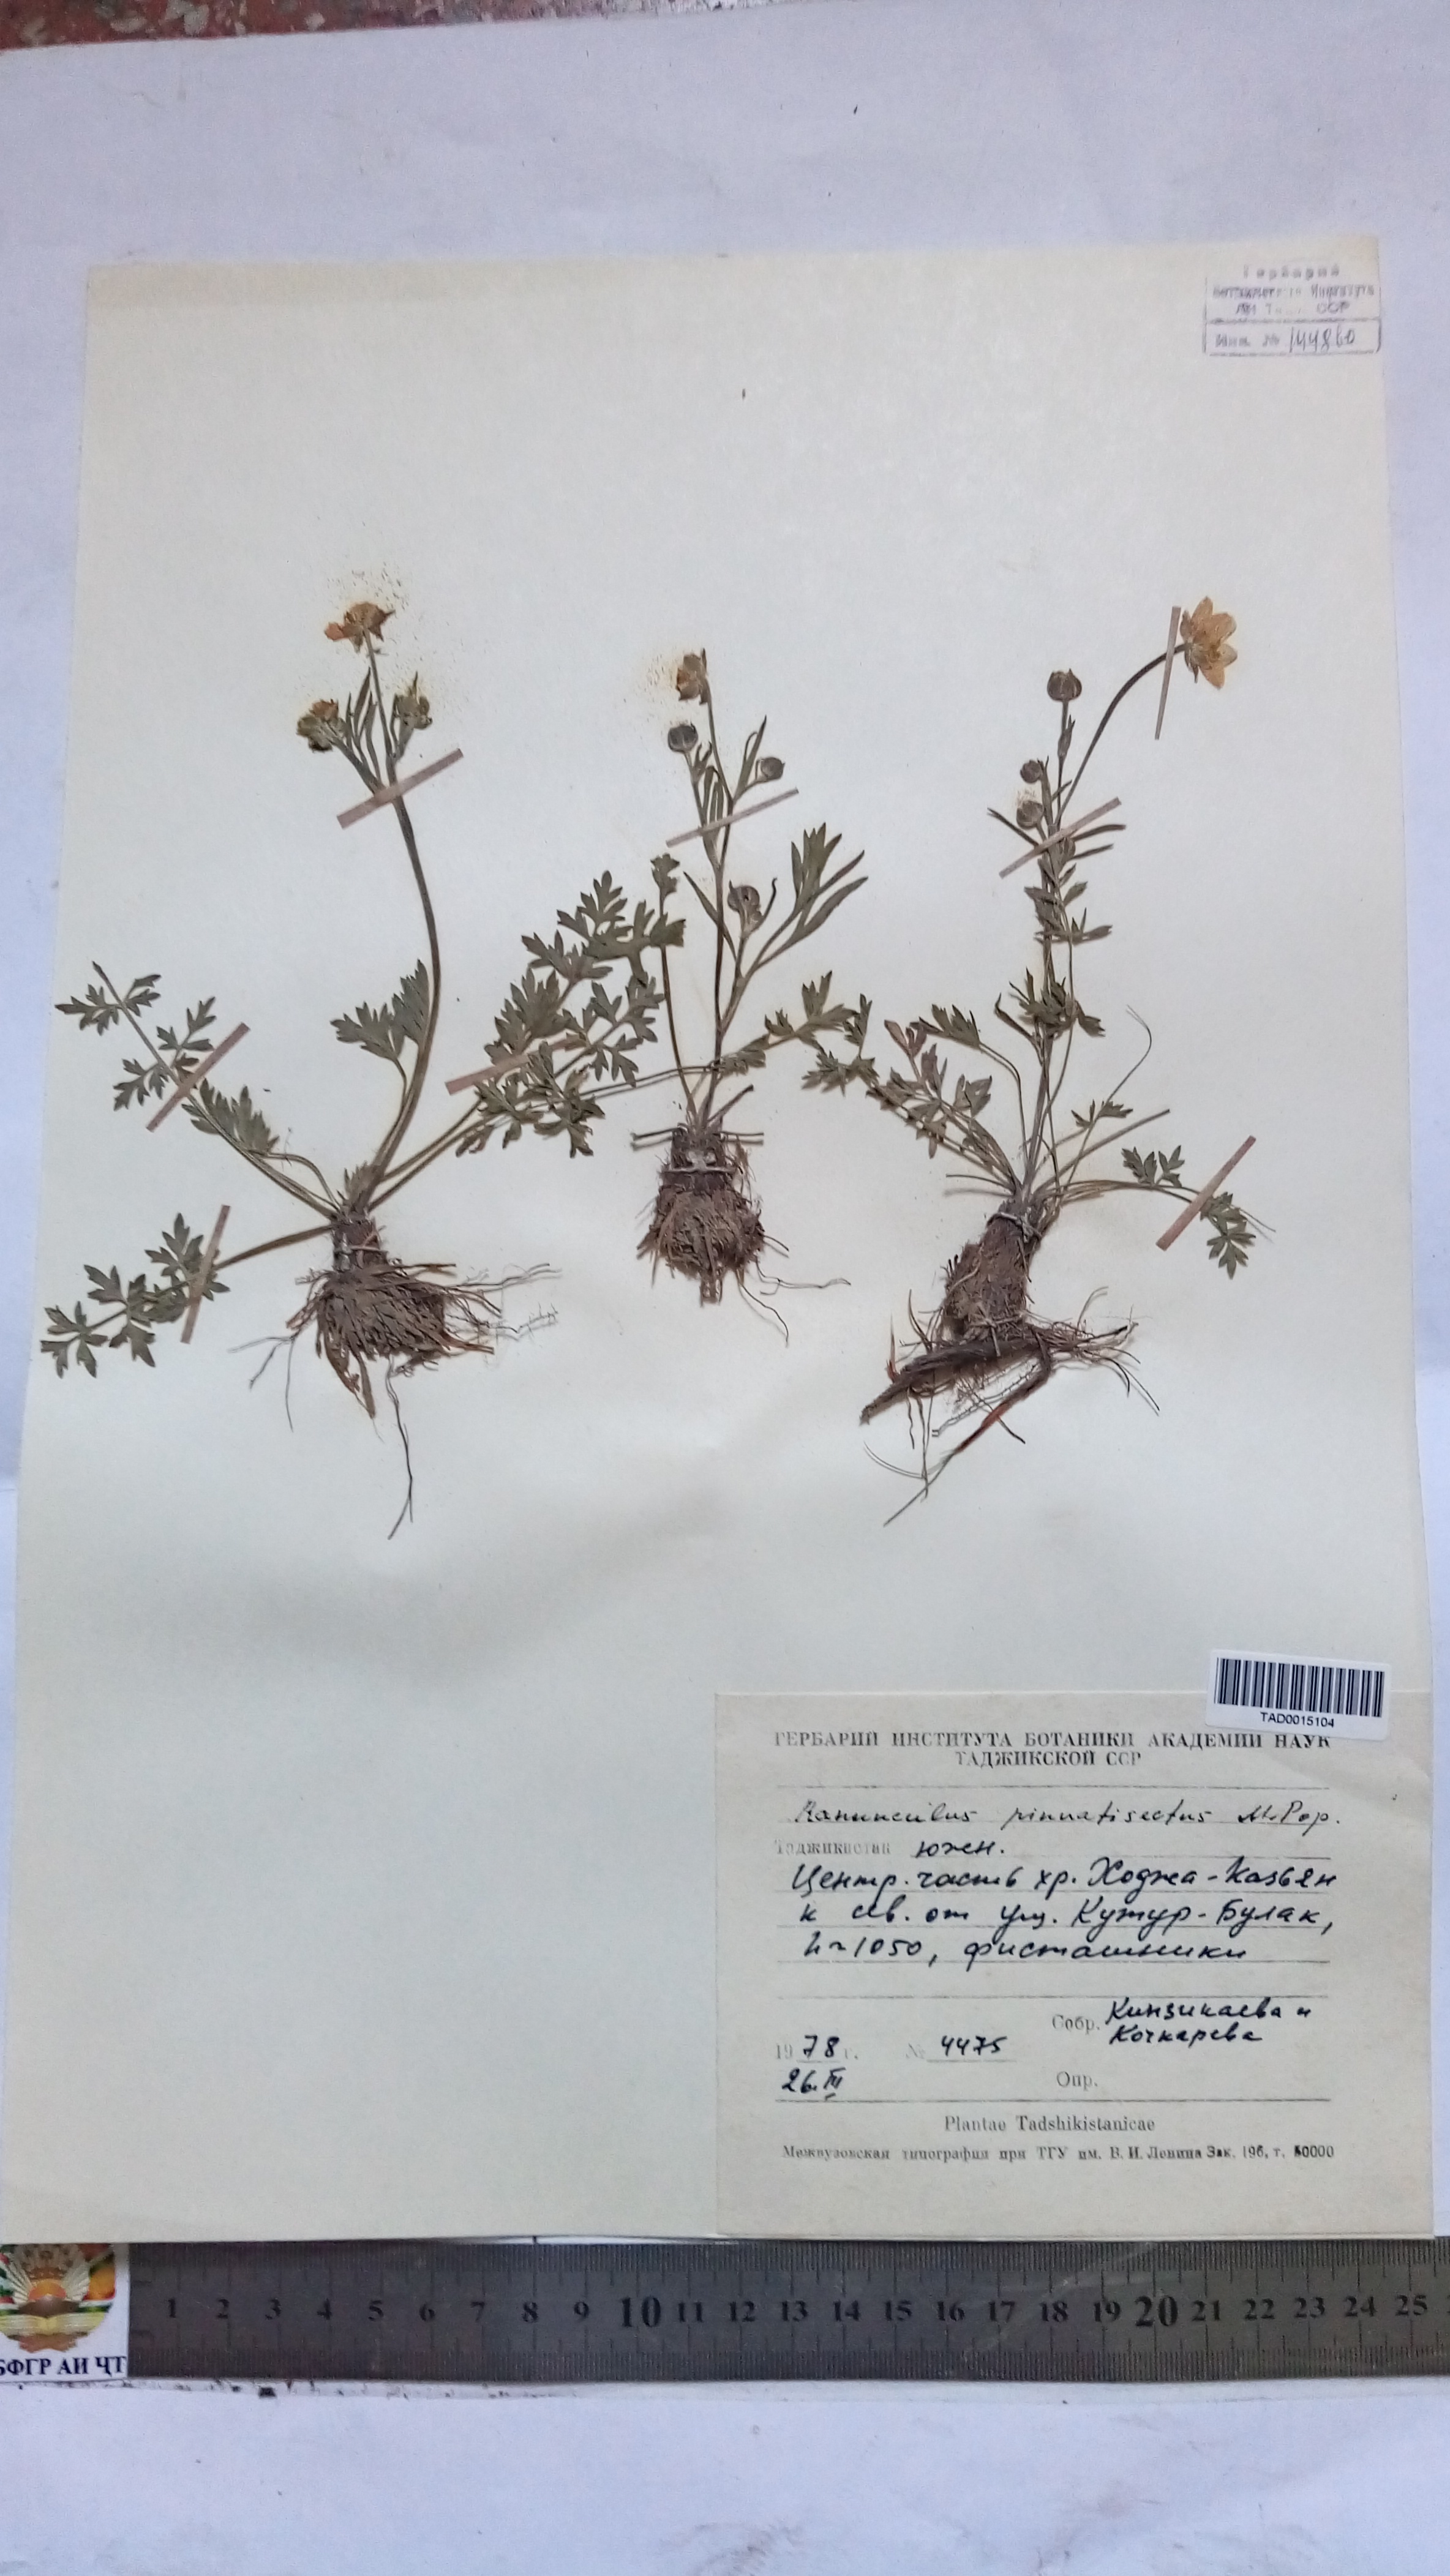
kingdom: Plantae
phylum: Tracheophyta
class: Magnoliopsida
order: Ranunculales
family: Ranunculaceae
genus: Ranunculus
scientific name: Ranunculus pinnatisectus
